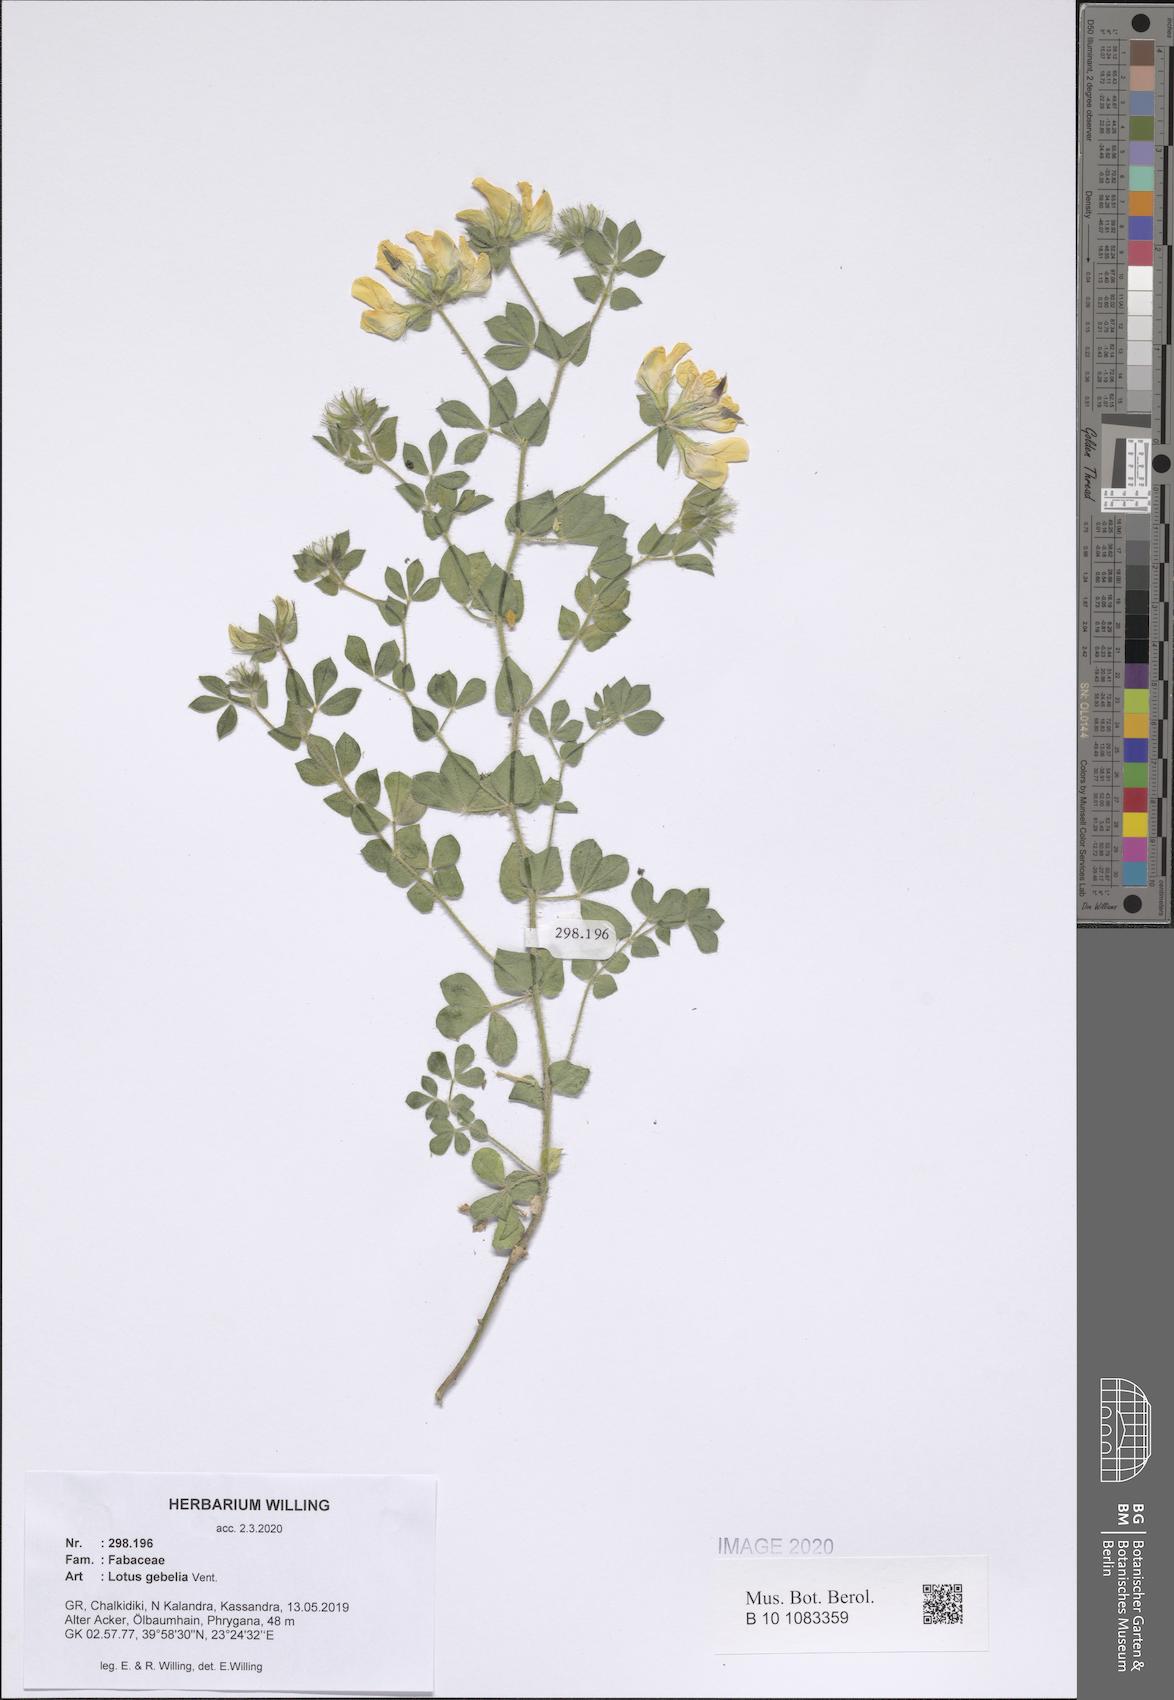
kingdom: Plantae
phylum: Tracheophyta
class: Magnoliopsida
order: Fabales
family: Fabaceae
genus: Lotus
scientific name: Lotus gebelia
